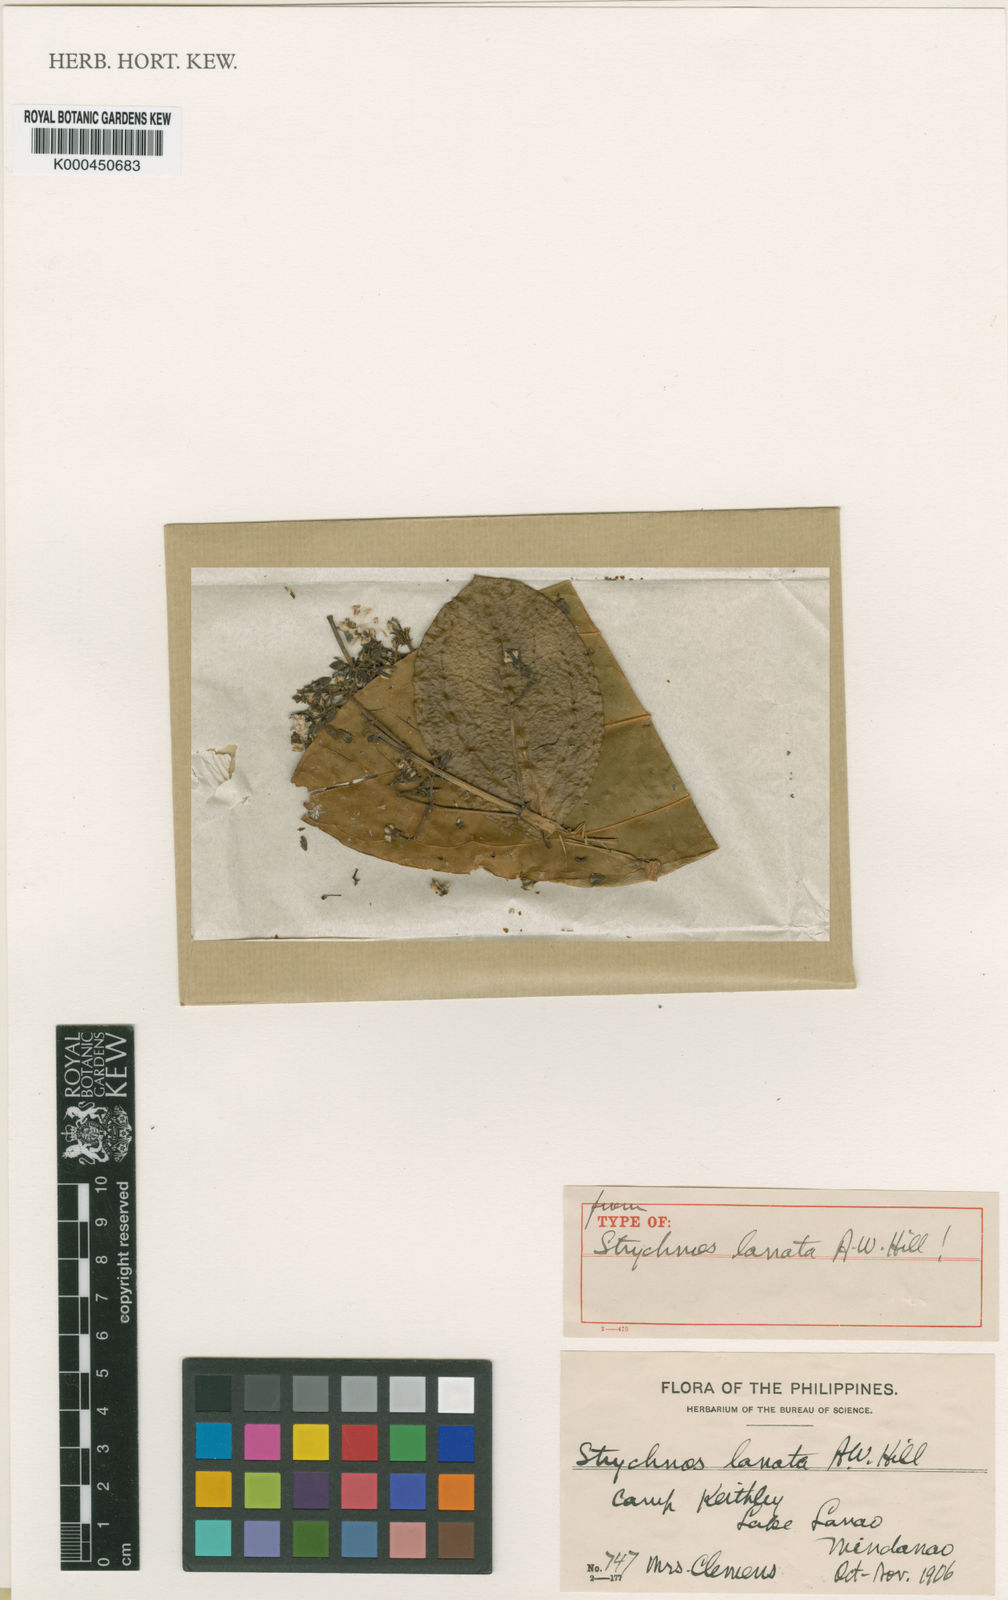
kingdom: Plantae
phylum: Tracheophyta
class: Magnoliopsida
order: Gentianales
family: Loganiaceae
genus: Strychnos
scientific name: Strychnos lanata
